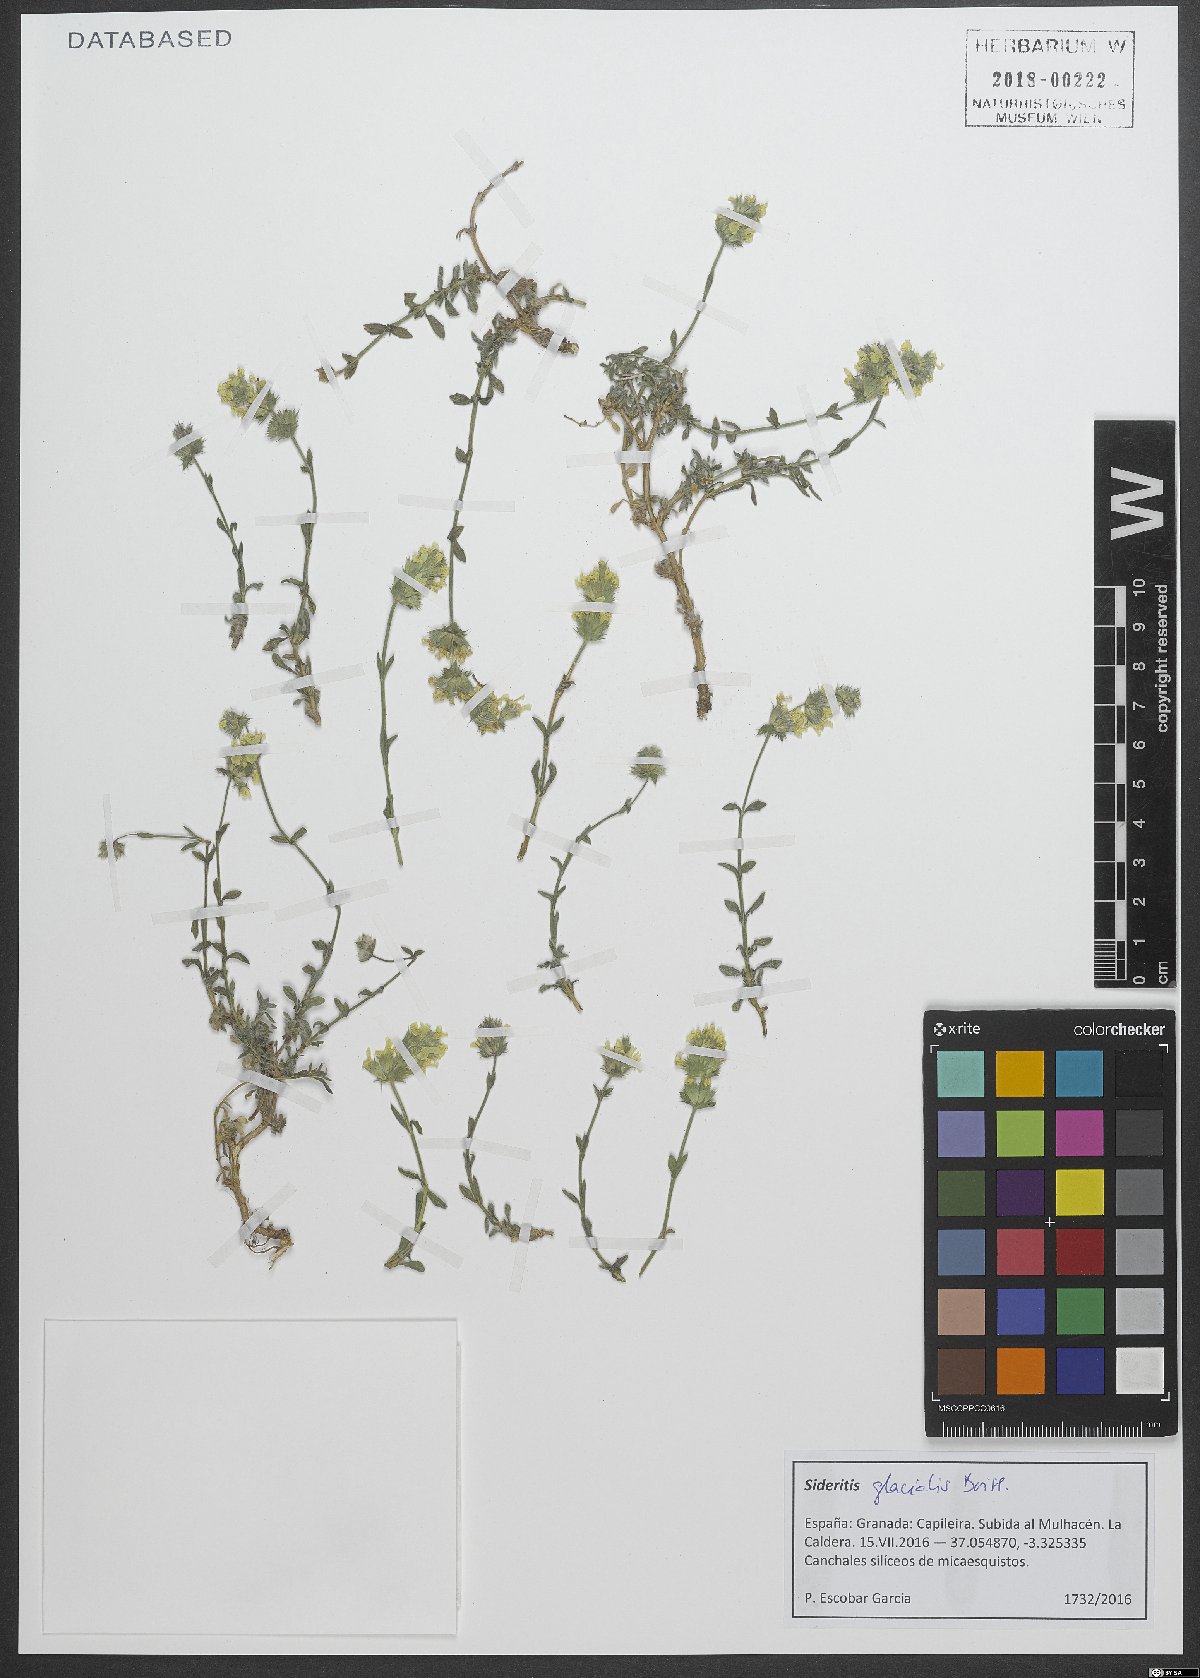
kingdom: Plantae
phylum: Tracheophyta
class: Magnoliopsida
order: Lamiales
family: Lamiaceae
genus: Sideritis
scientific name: Sideritis glacialis
